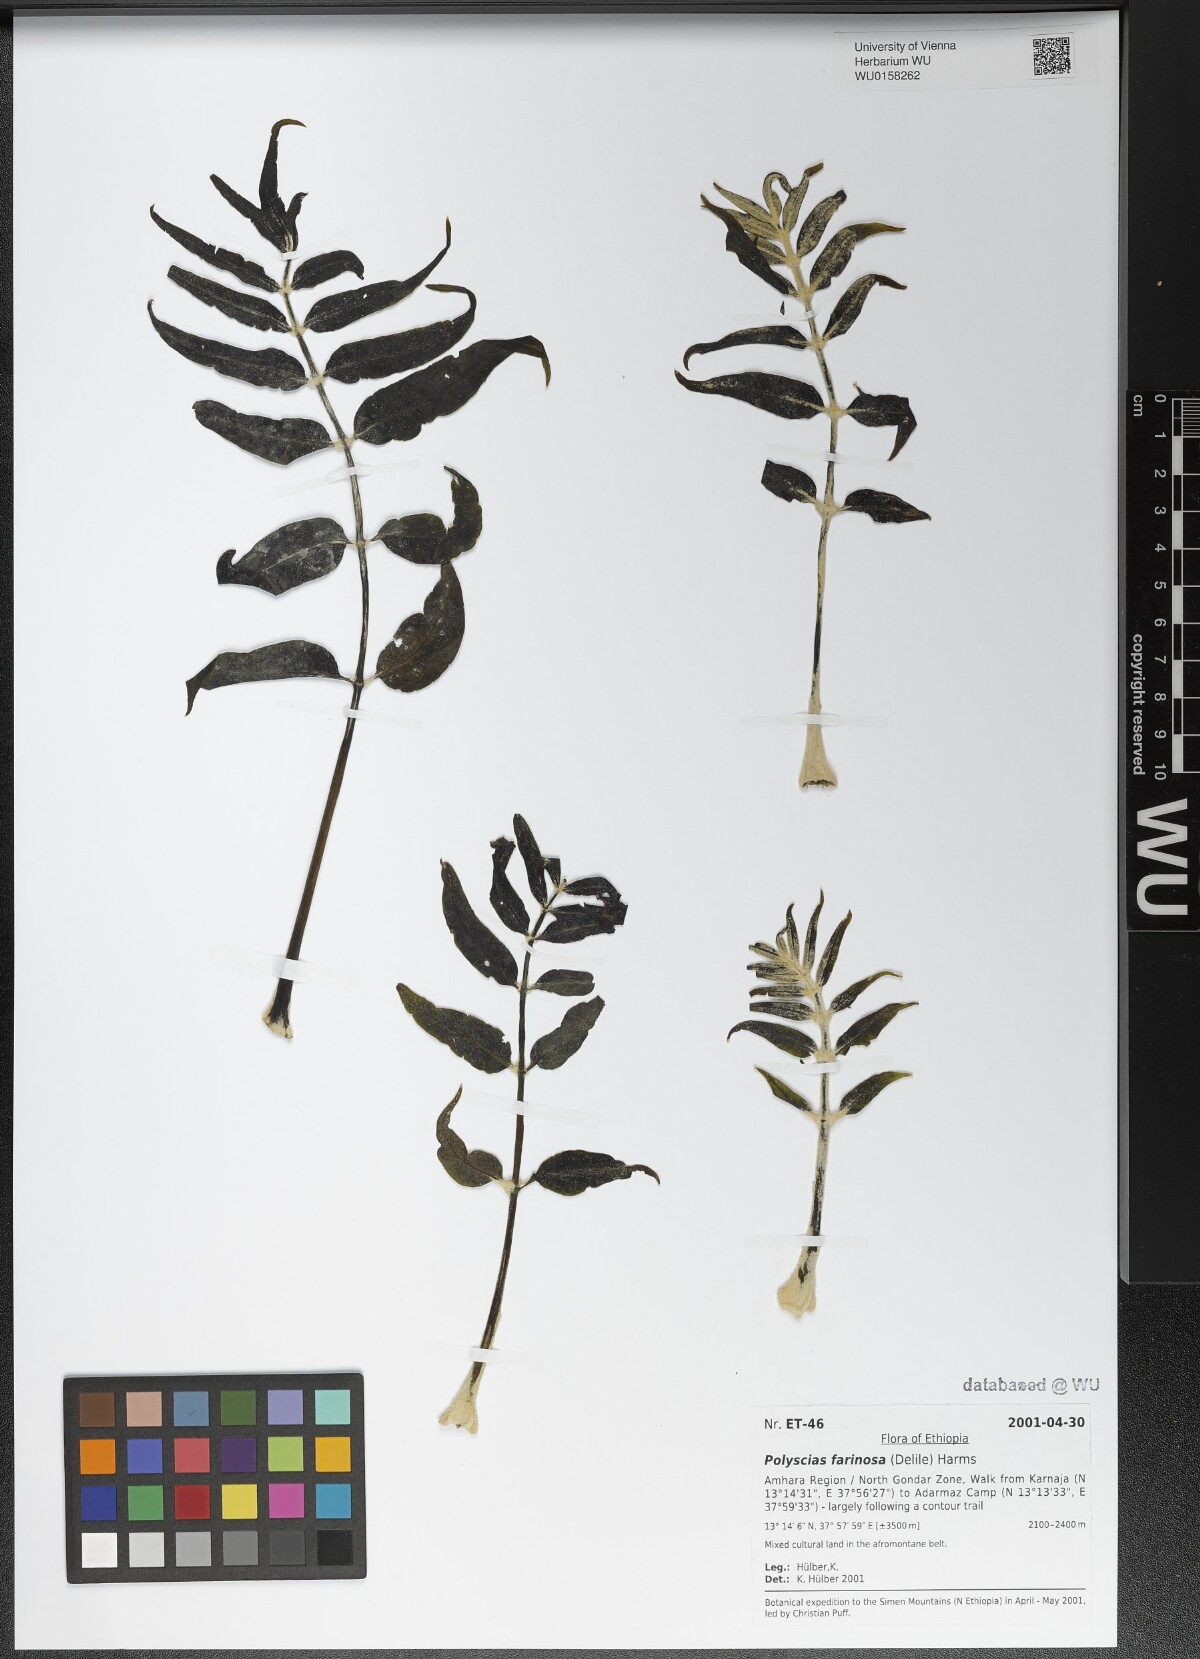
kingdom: Plantae
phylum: Tracheophyta
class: Magnoliopsida
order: Apiales
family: Araliaceae
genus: Polyscias
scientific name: Polyscias farinosa
